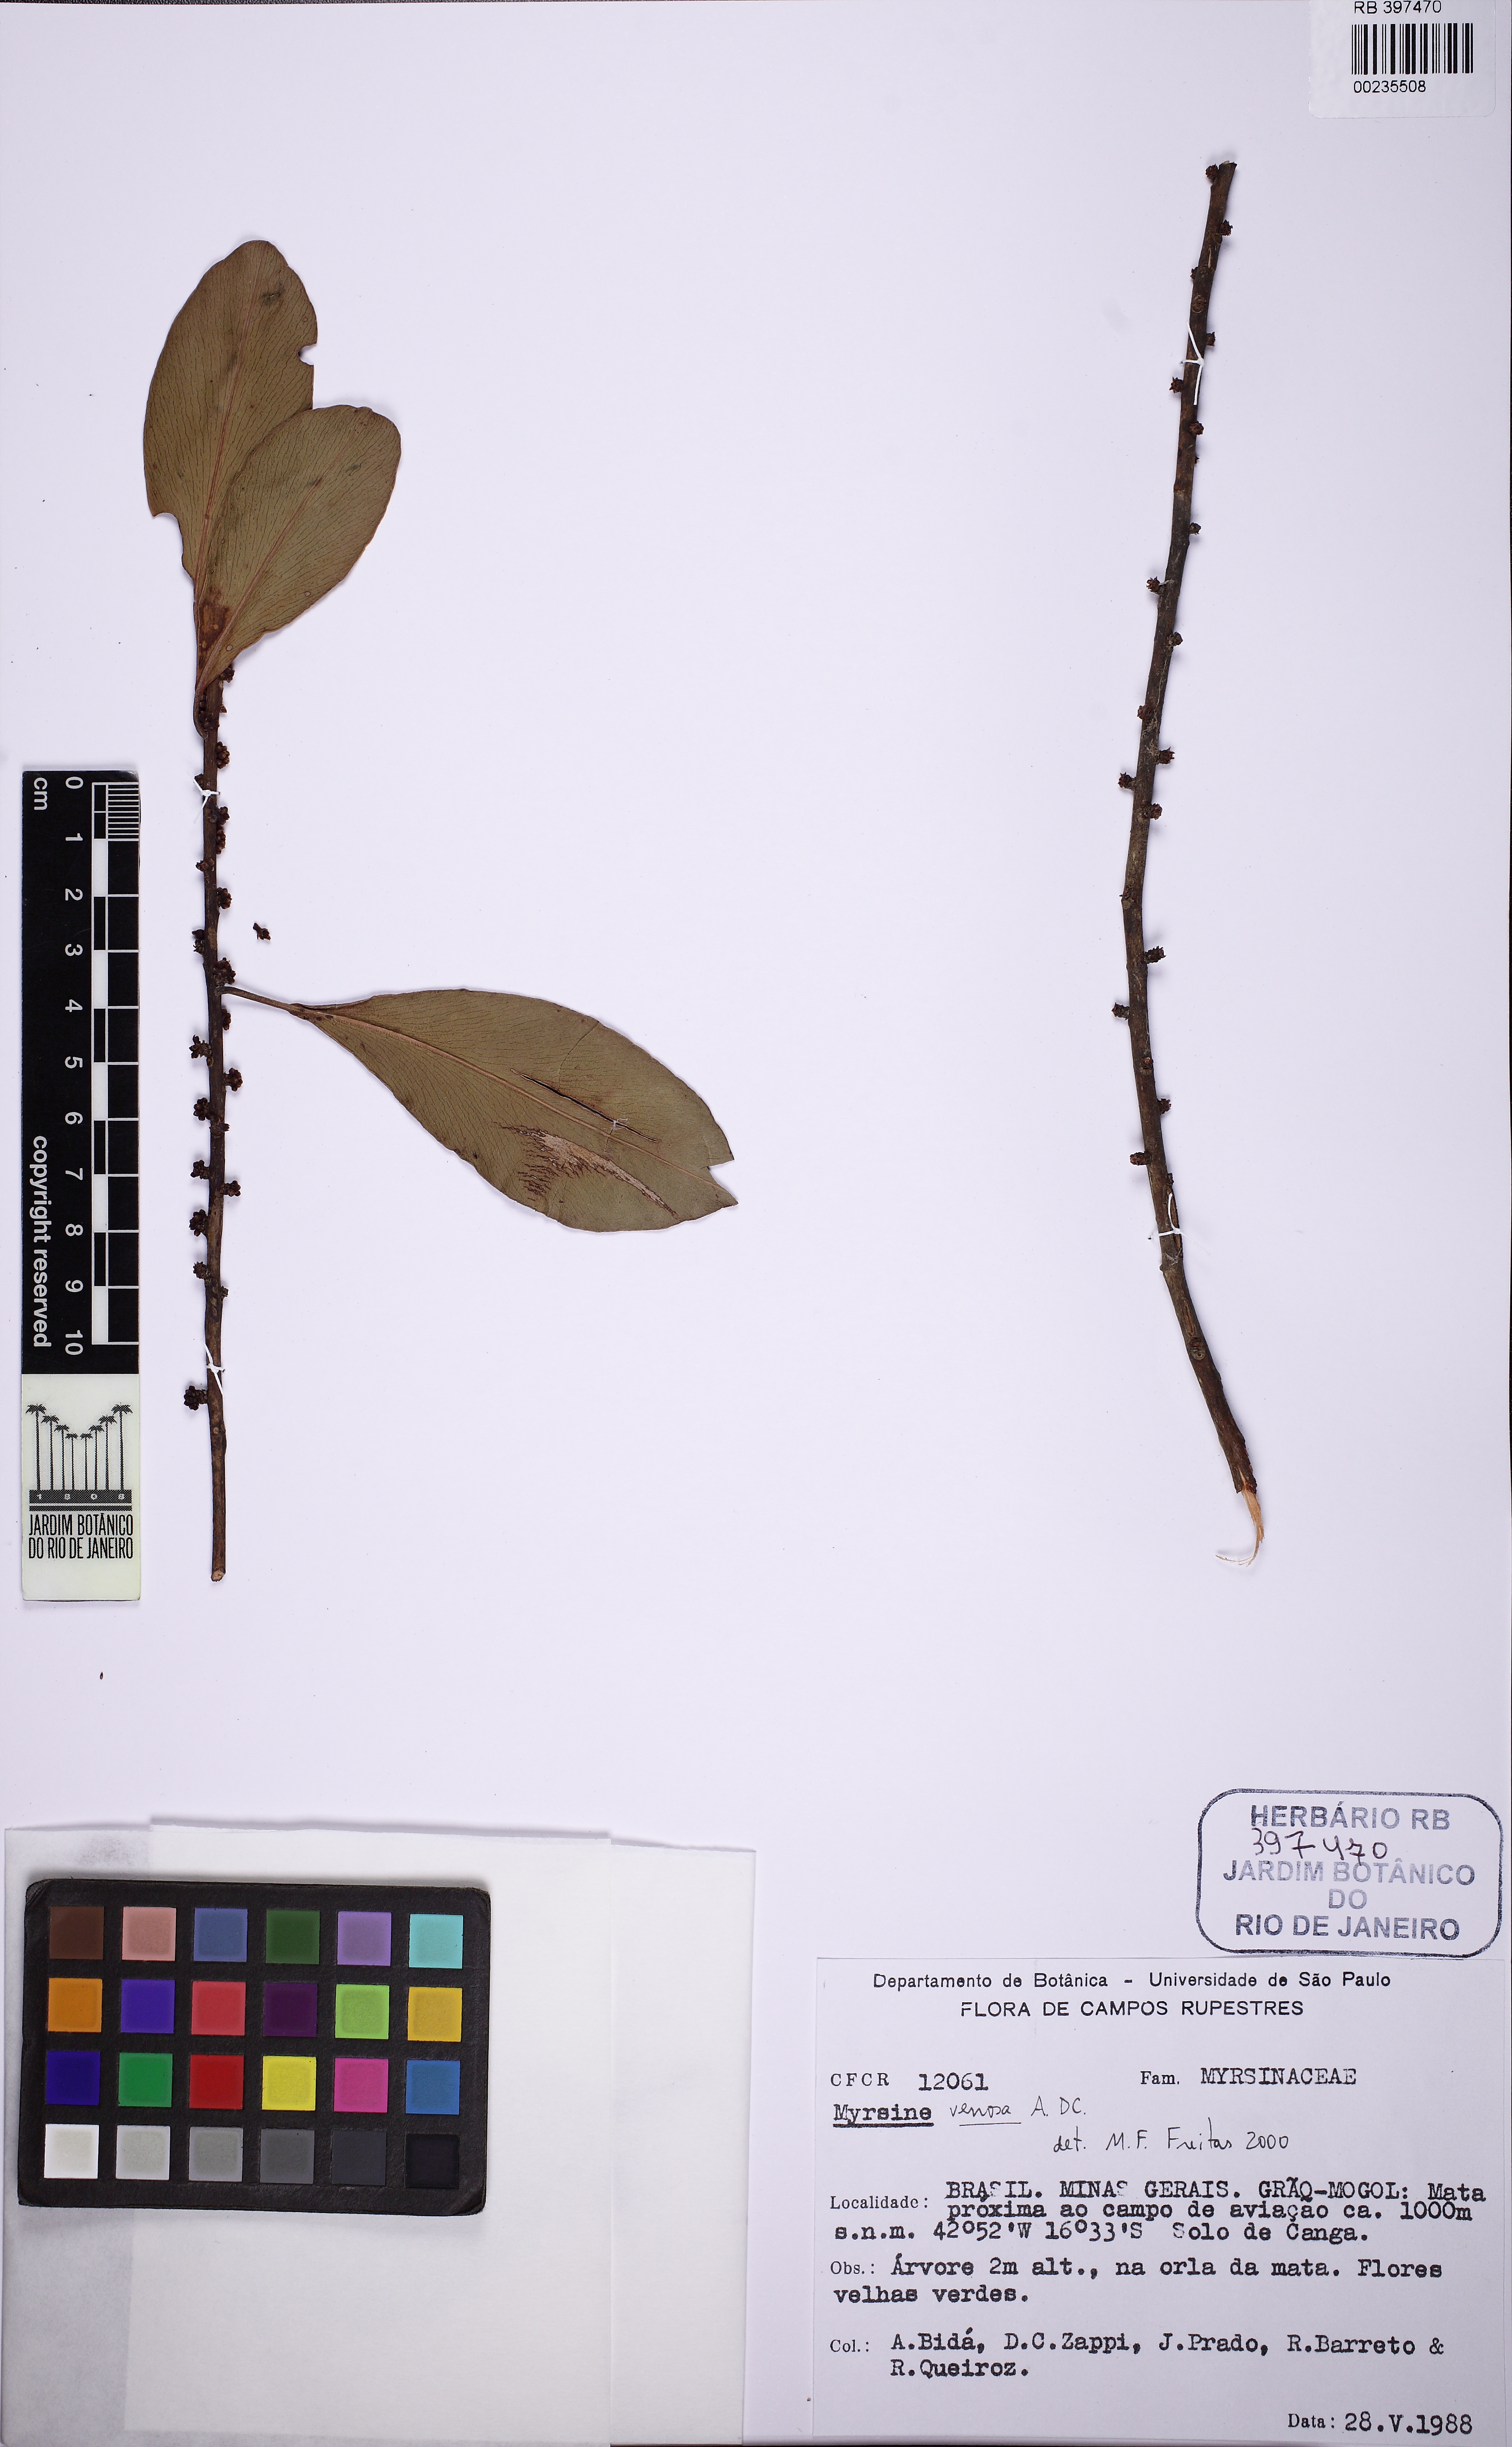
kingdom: Plantae
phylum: Tracheophyta
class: Magnoliopsida
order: Ericales
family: Primulaceae
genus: Myrsine
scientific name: Myrsine venosa
